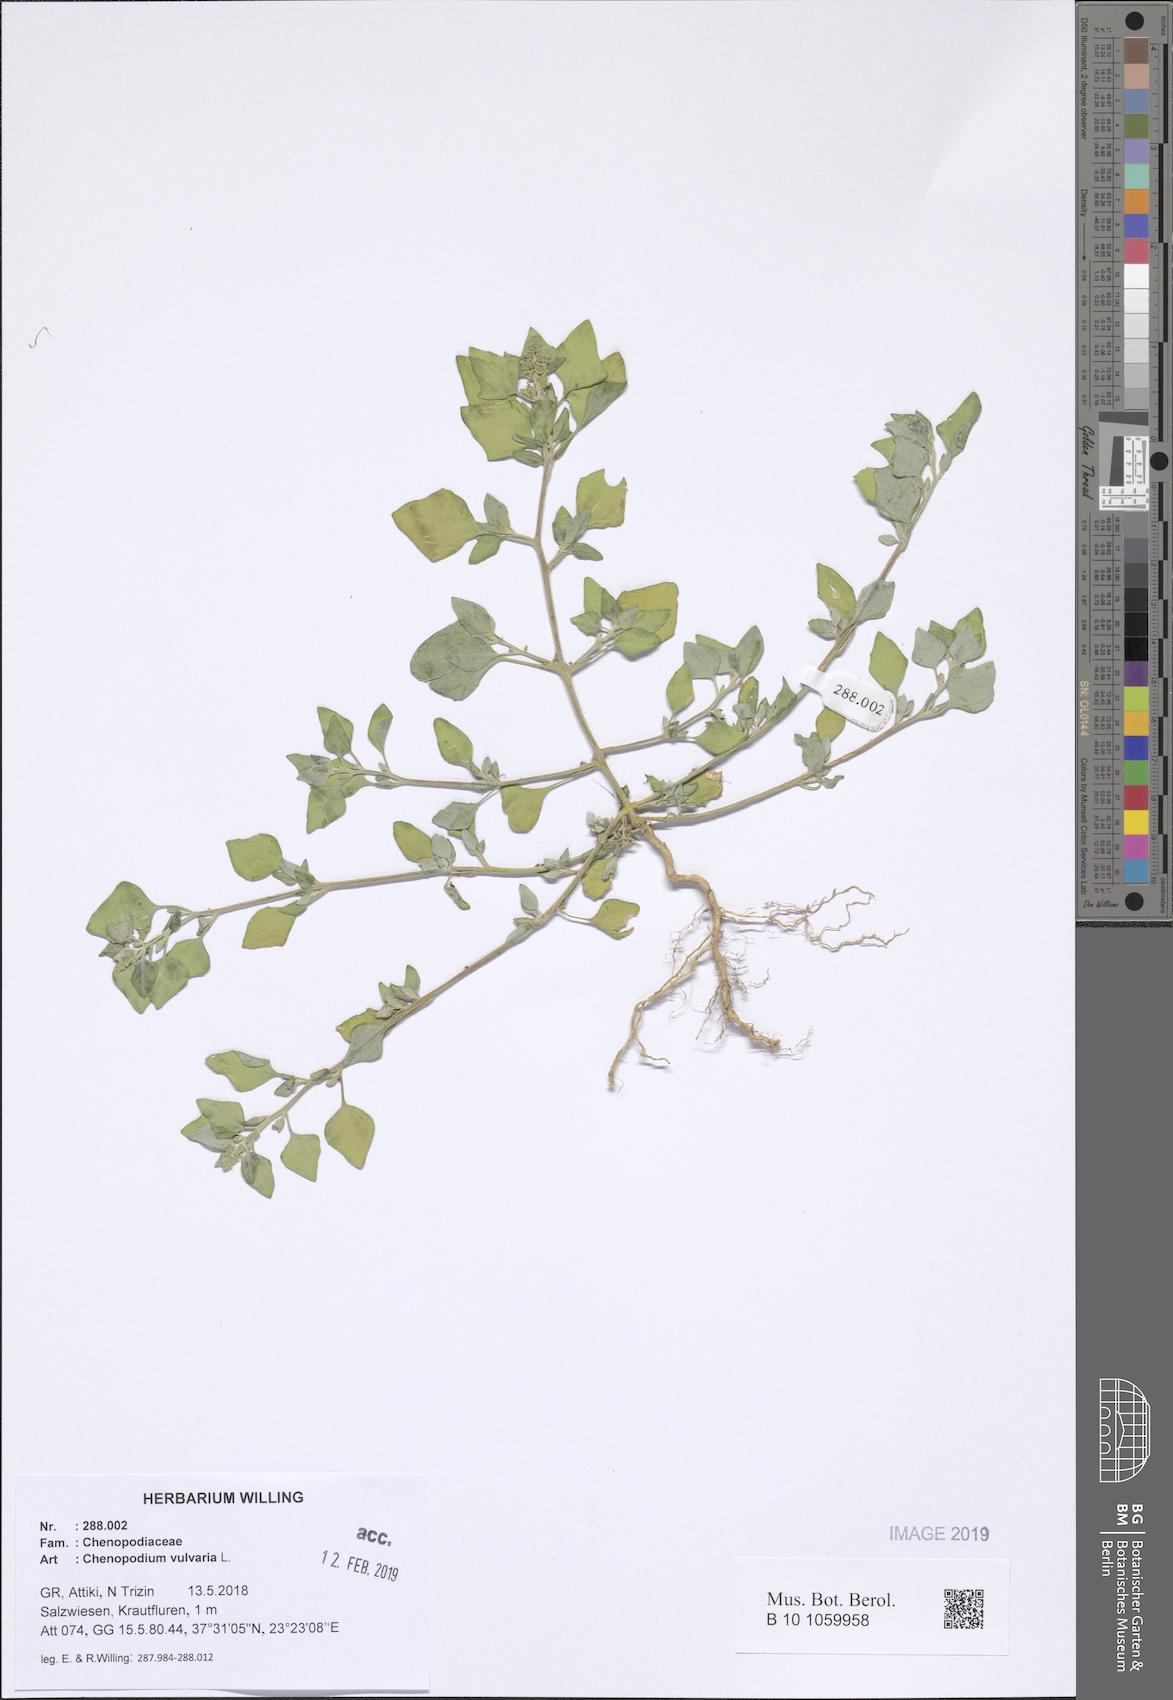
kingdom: Plantae
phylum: Tracheophyta
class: Magnoliopsida
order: Caryophyllales
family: Amaranthaceae
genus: Chenopodium
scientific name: Chenopodium vulvaria
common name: Stinking goosefoot
